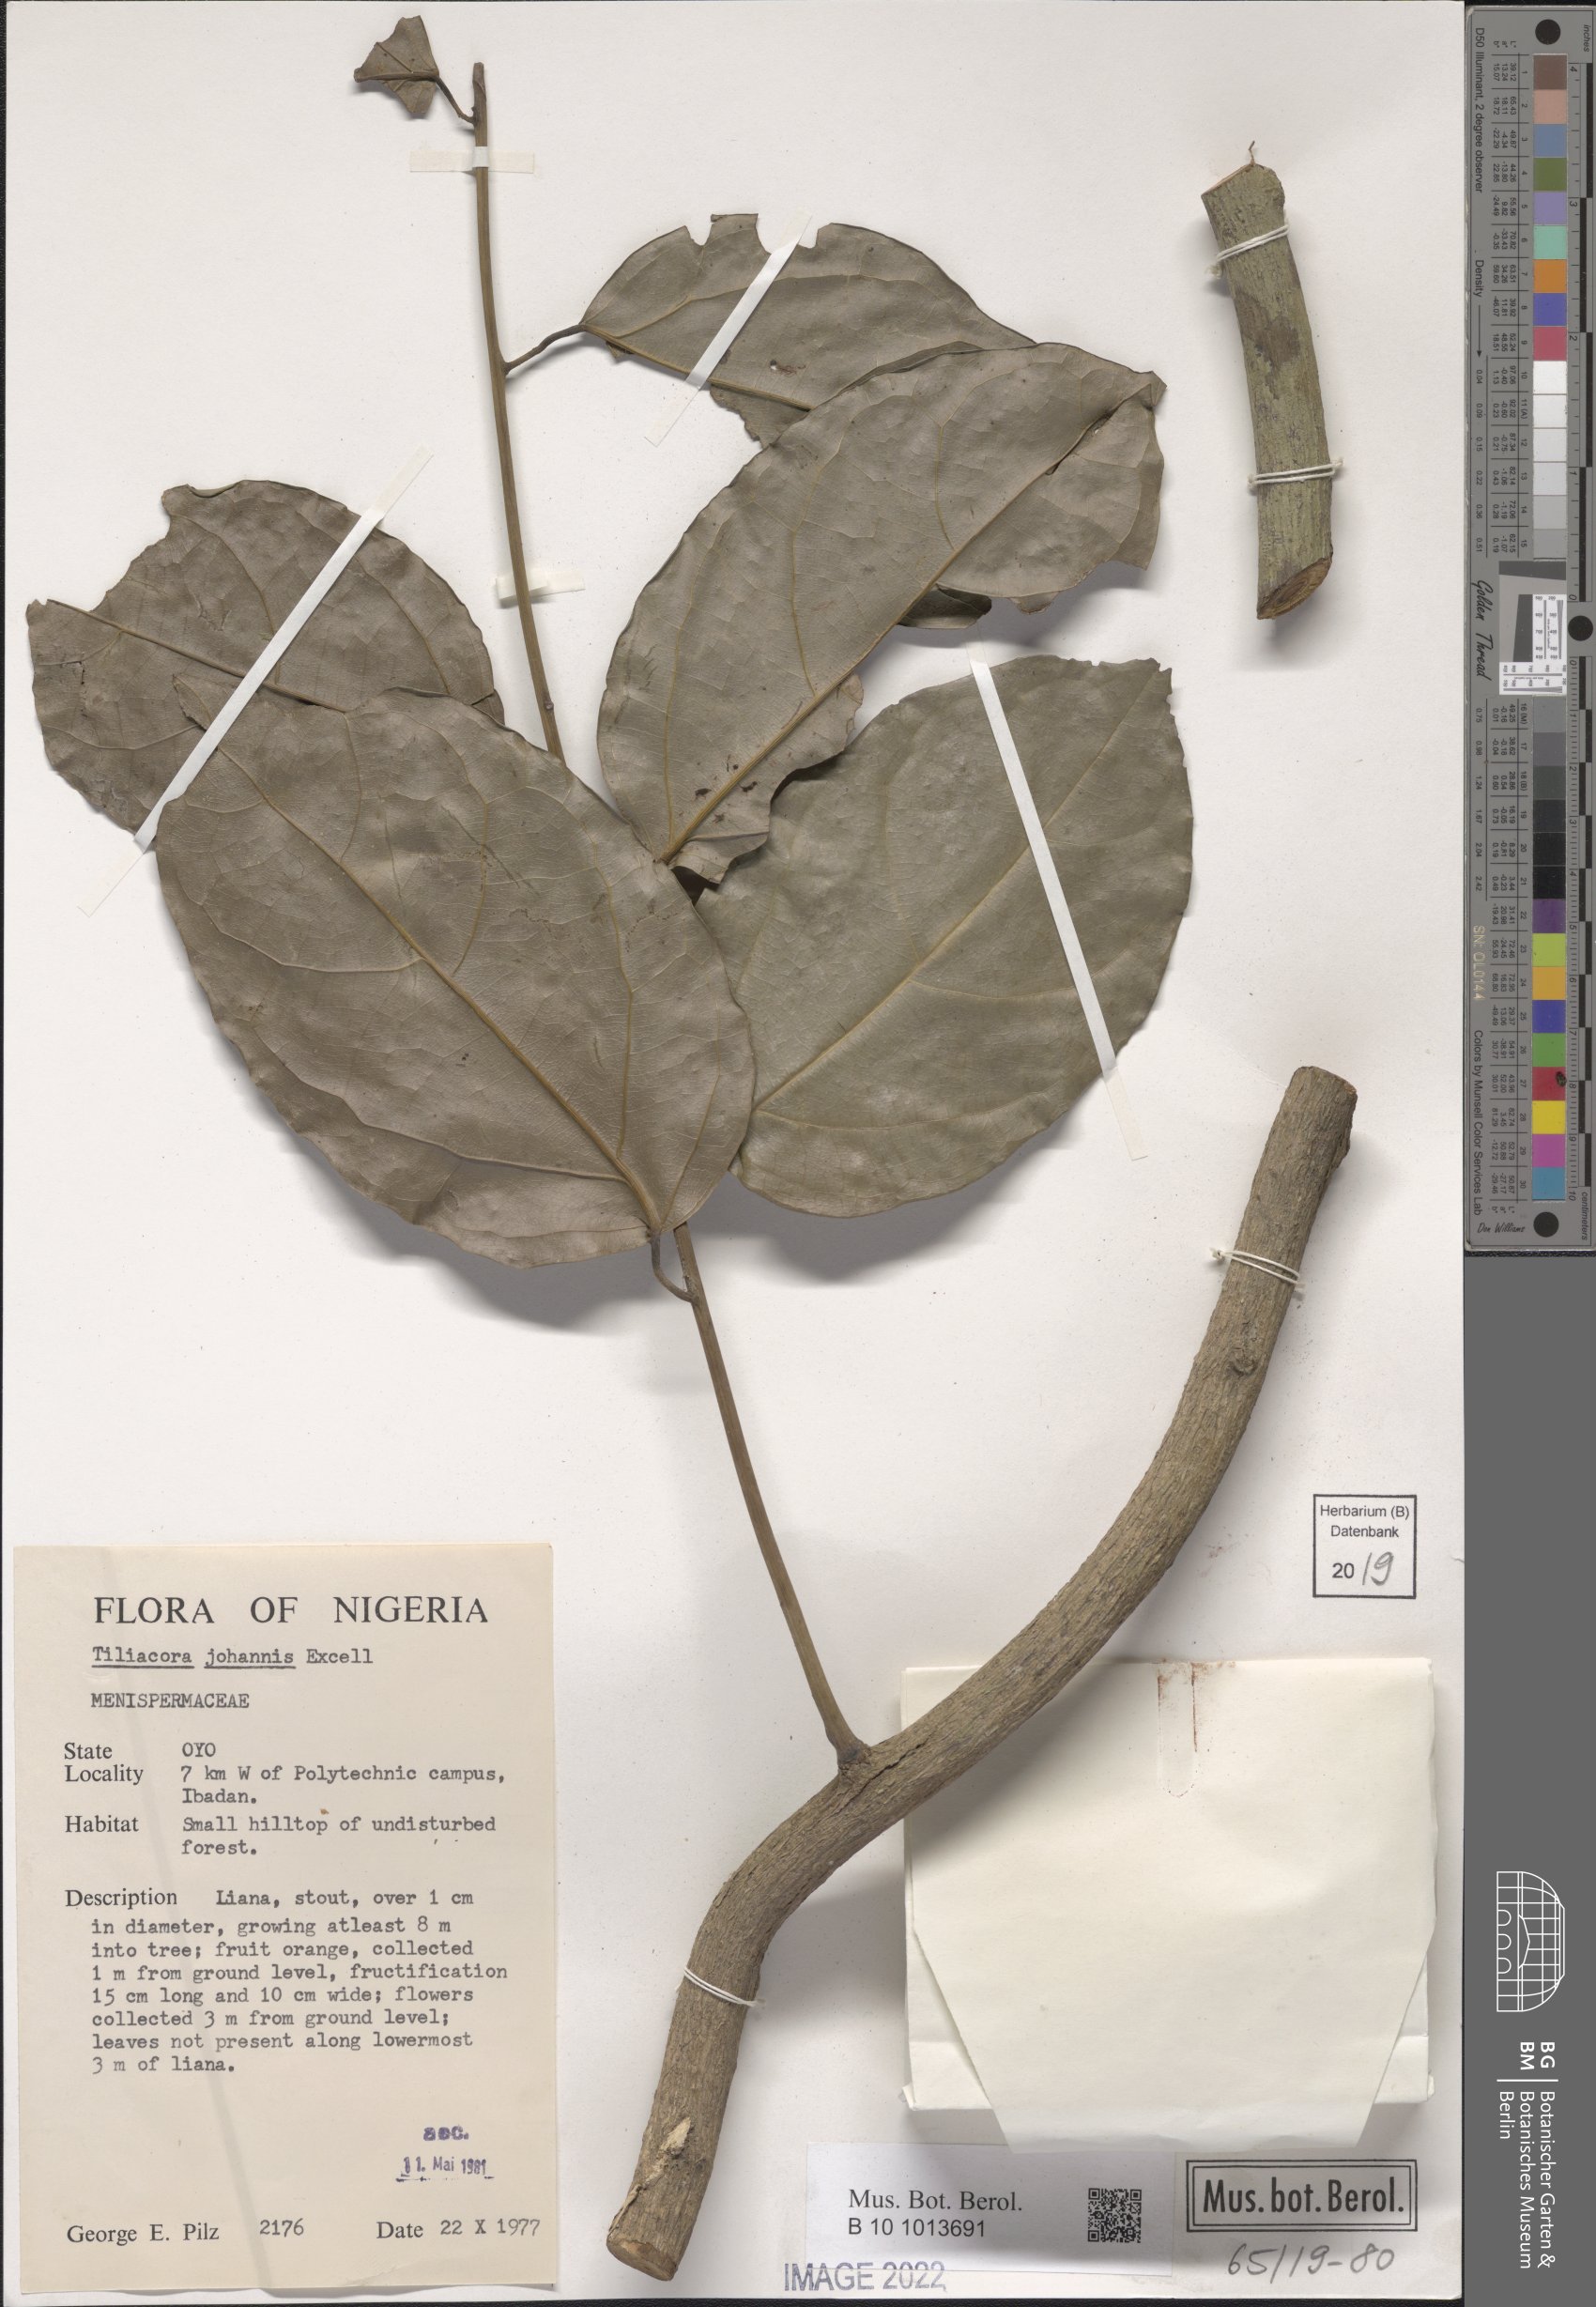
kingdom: Plantae
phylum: Tracheophyta
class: Magnoliopsida
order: Ranunculales
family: Menispermaceae
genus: Tiliacora
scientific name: Tiliacora funifera
